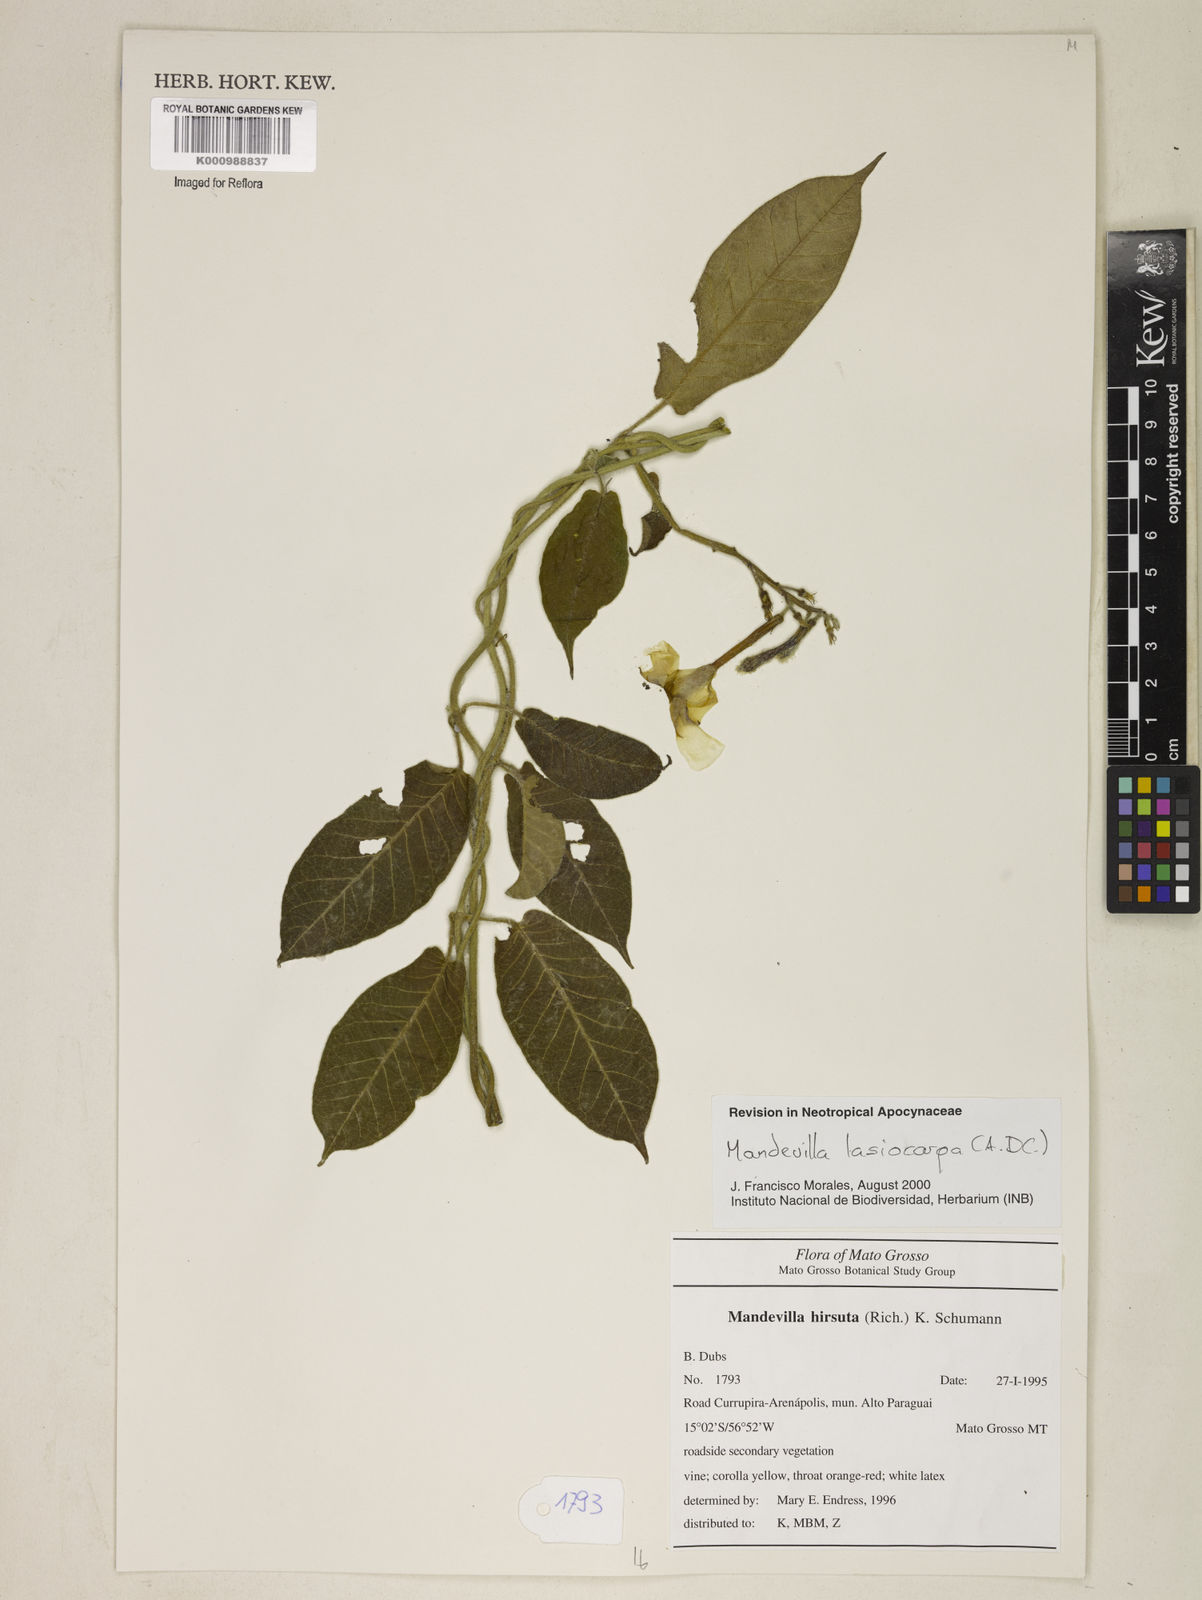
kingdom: Plantae
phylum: Tracheophyta
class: Magnoliopsida
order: Gentianales
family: Apocynaceae
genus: Mandevilla
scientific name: Mandevilla hirsuta
